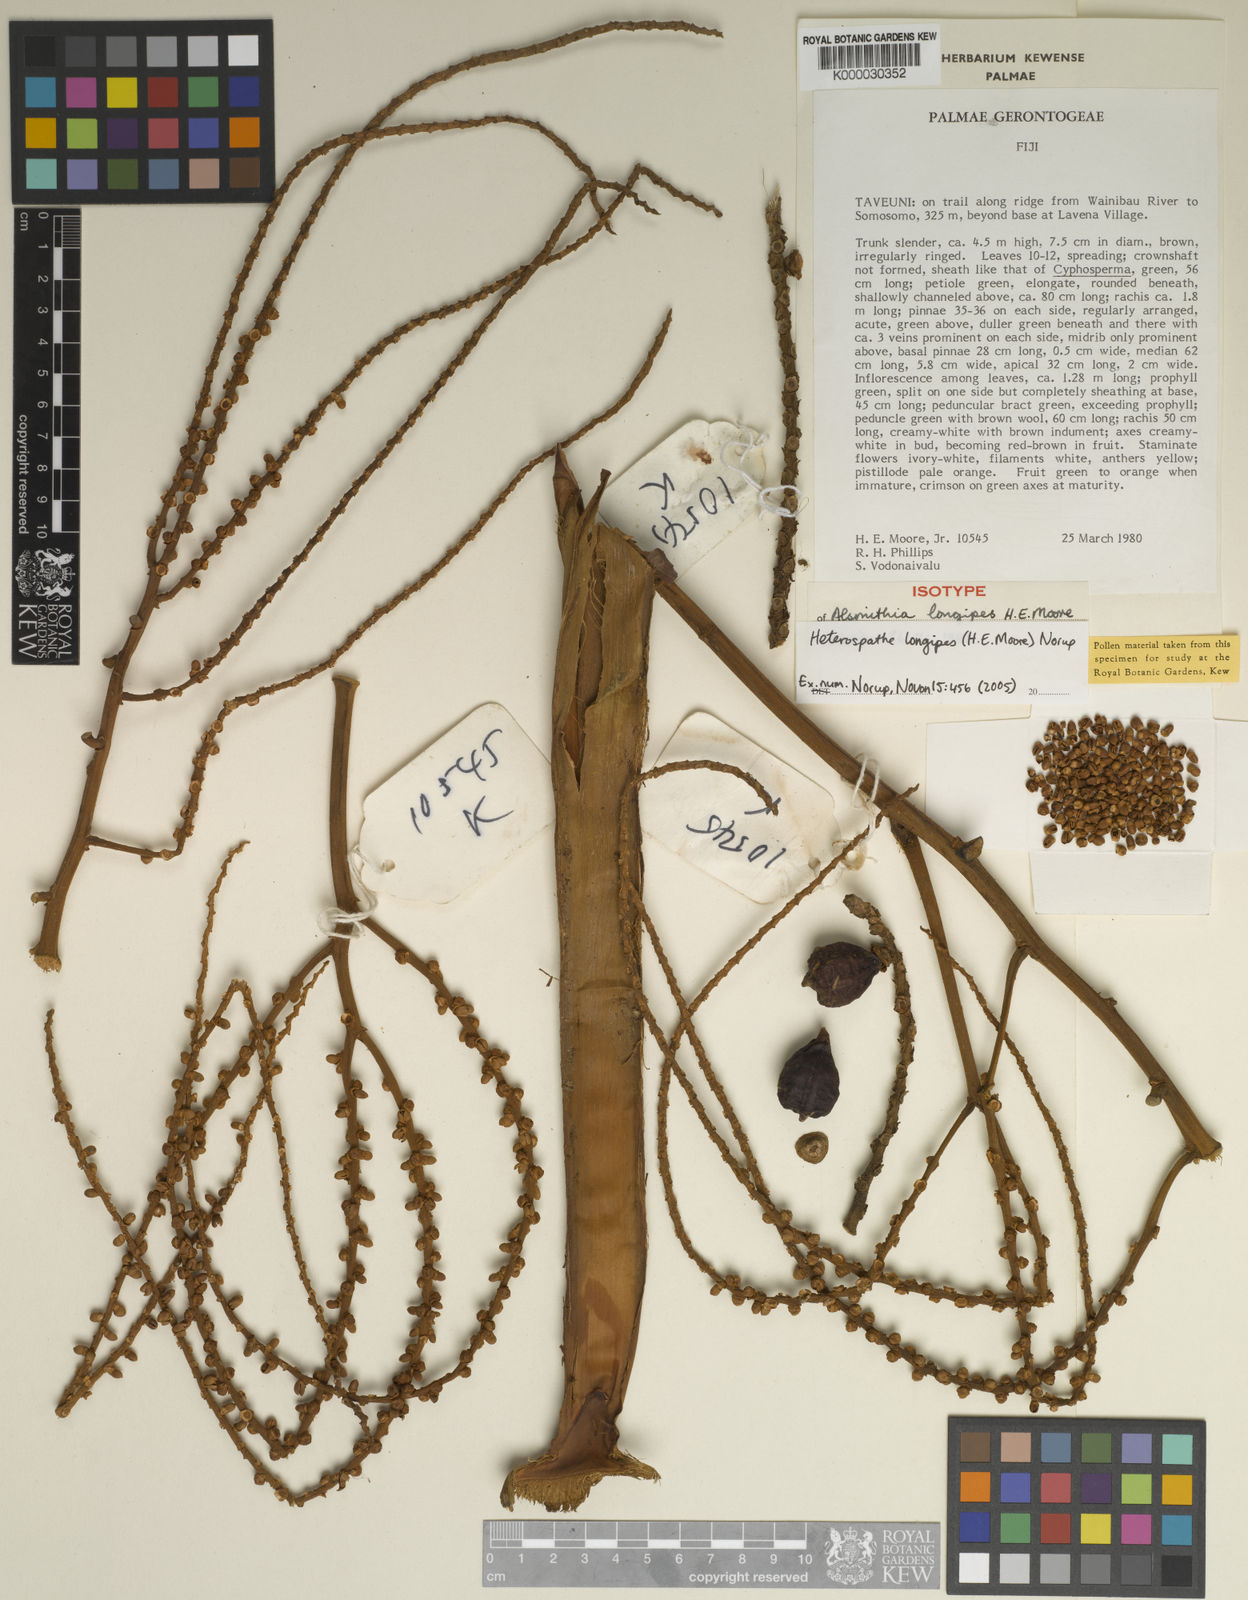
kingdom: Plantae
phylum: Tracheophyta
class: Liliopsida
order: Arecales
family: Arecaceae
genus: Heterospathe
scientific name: Heterospathe longipes
